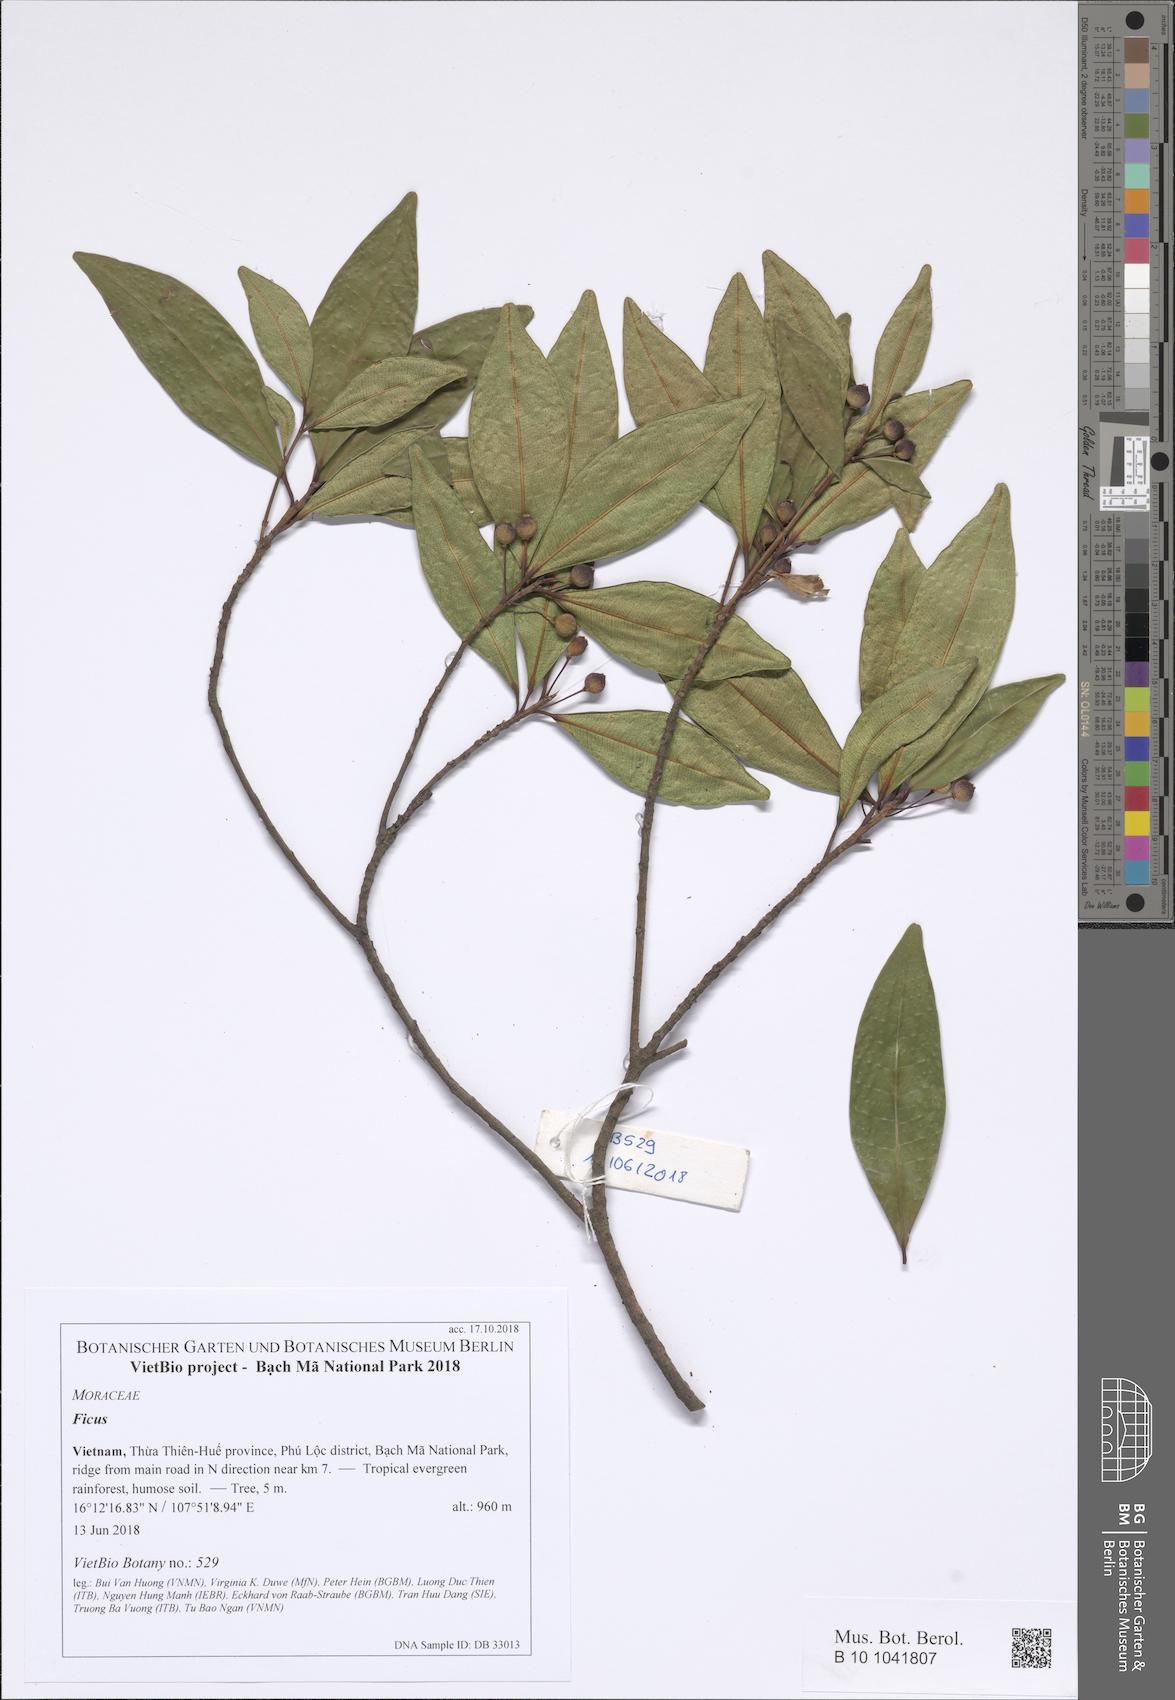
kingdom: Plantae
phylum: Tracheophyta
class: Magnoliopsida
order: Rosales
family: Moraceae
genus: Ficus
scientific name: Ficus
